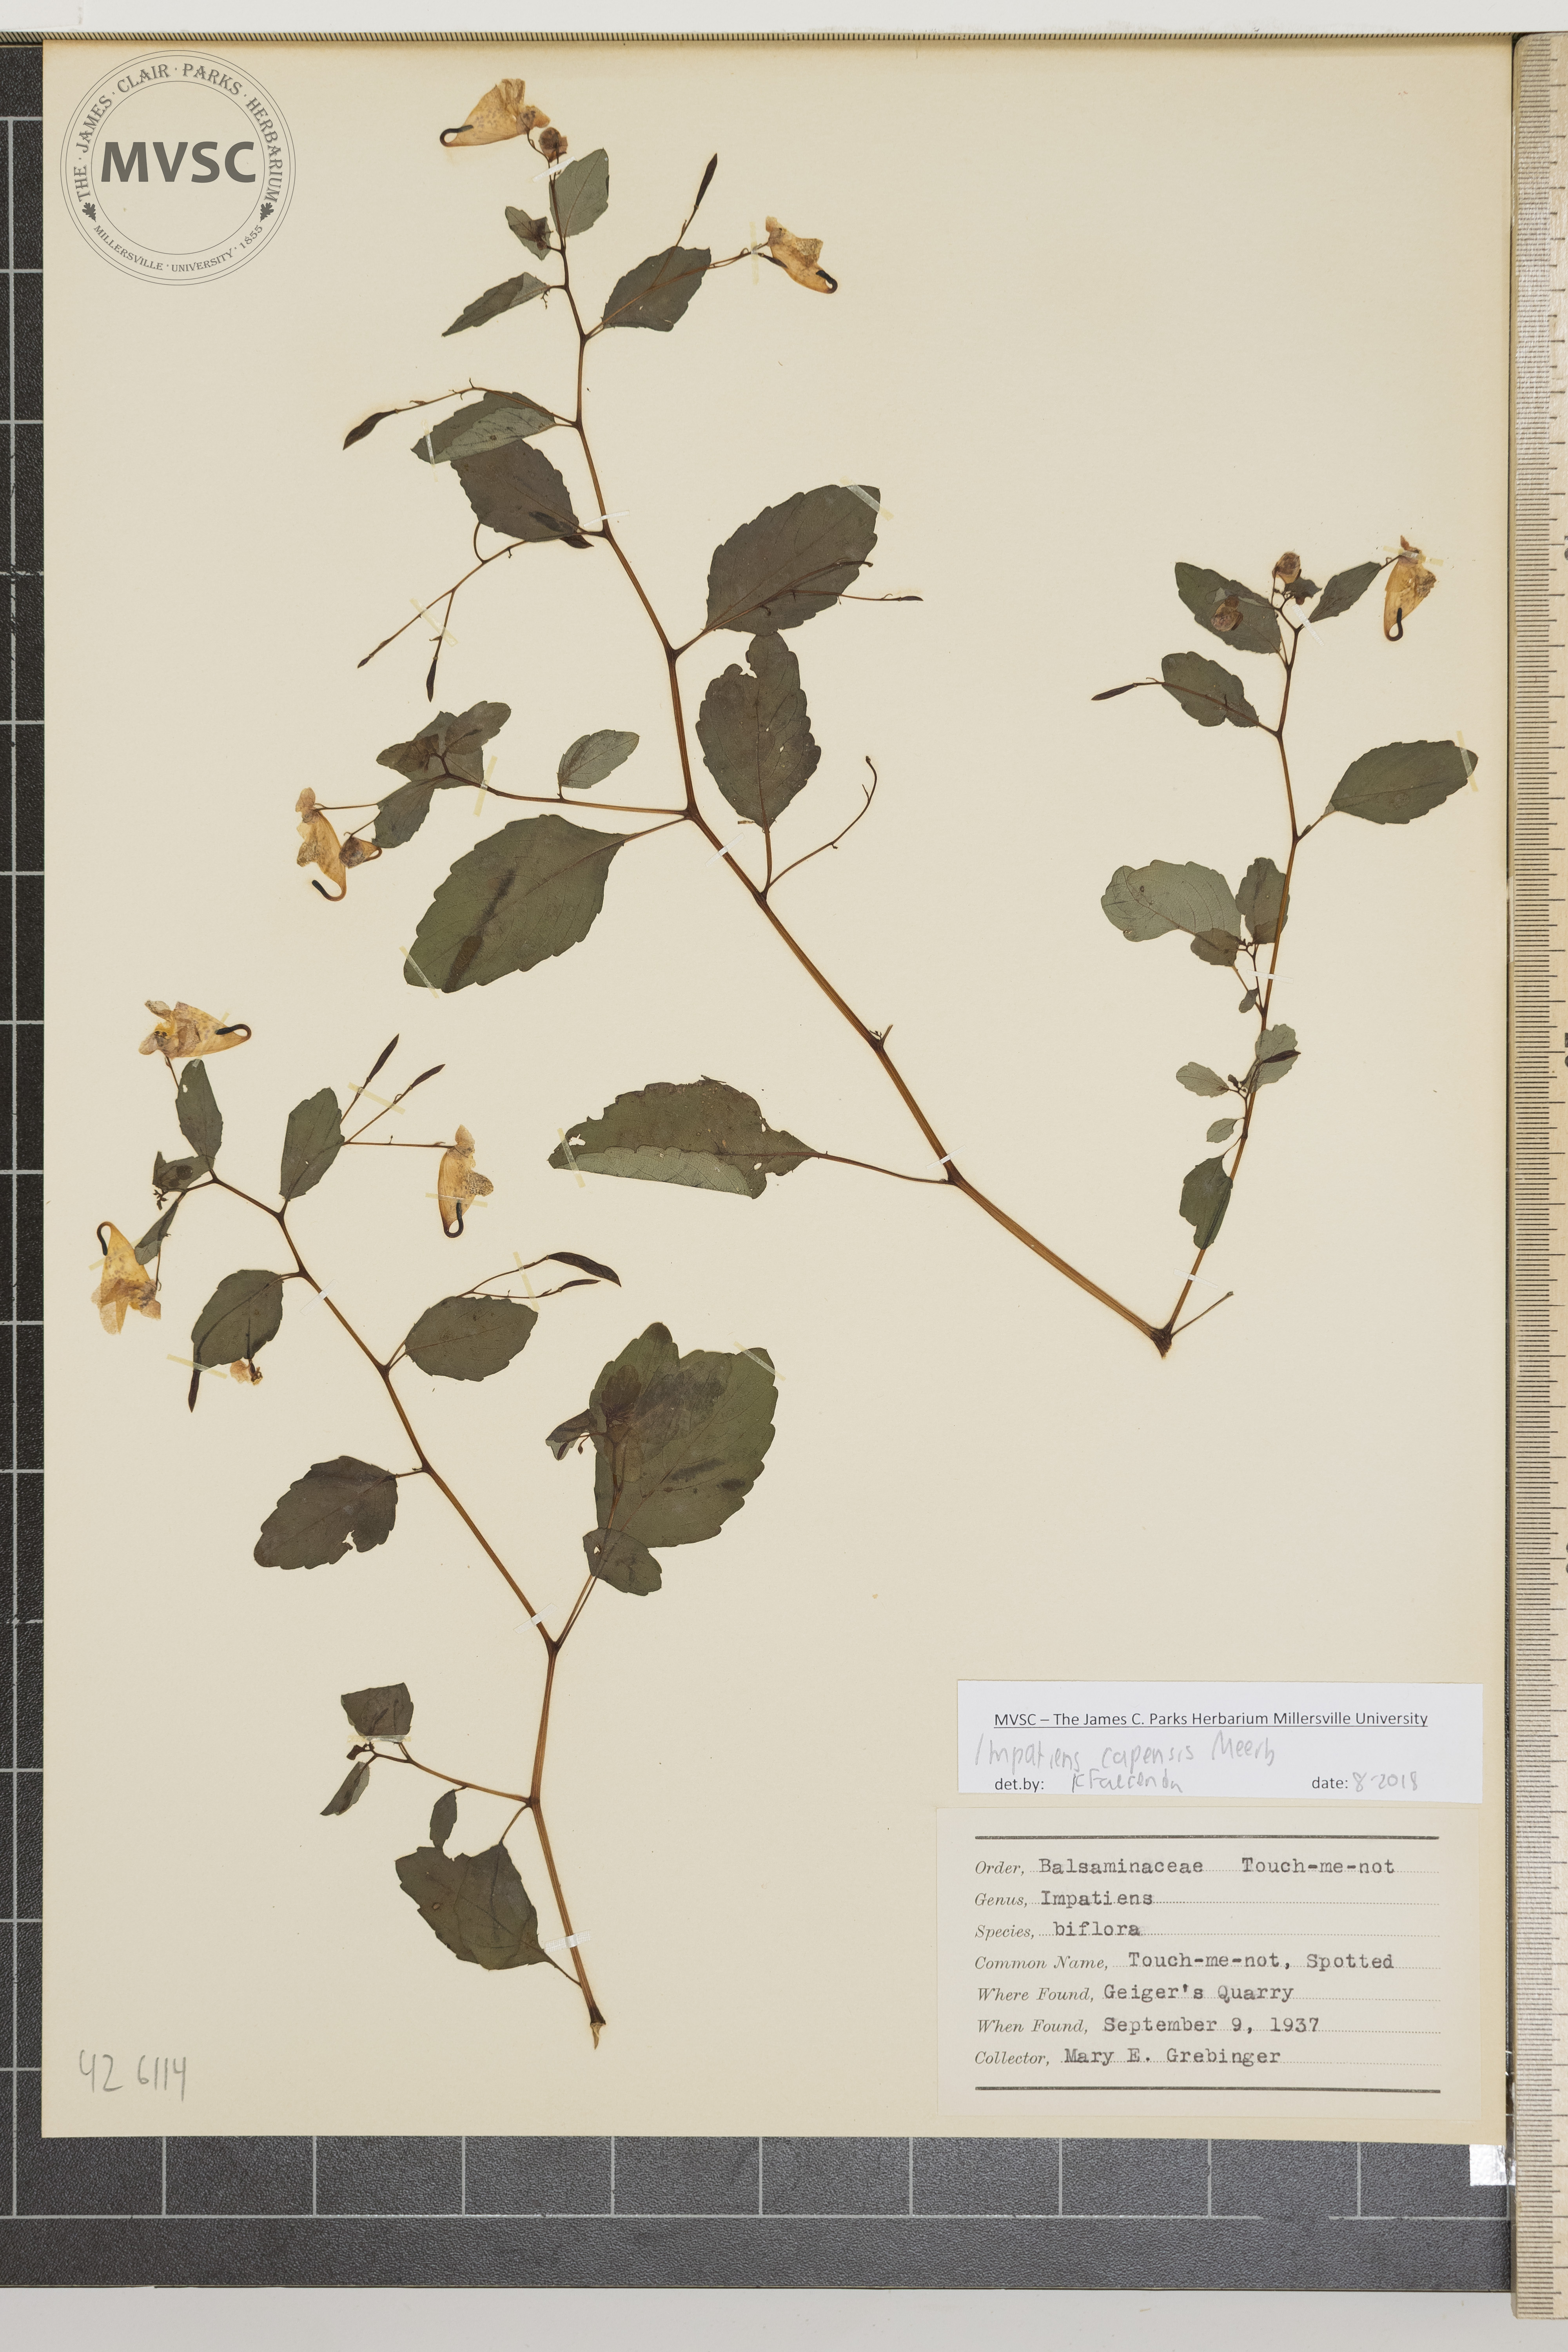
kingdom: Plantae
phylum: Tracheophyta
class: Magnoliopsida
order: Ericales
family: Balsaminaceae
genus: Impatiens
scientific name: Impatiens capensis
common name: Spotted touch-me-not
